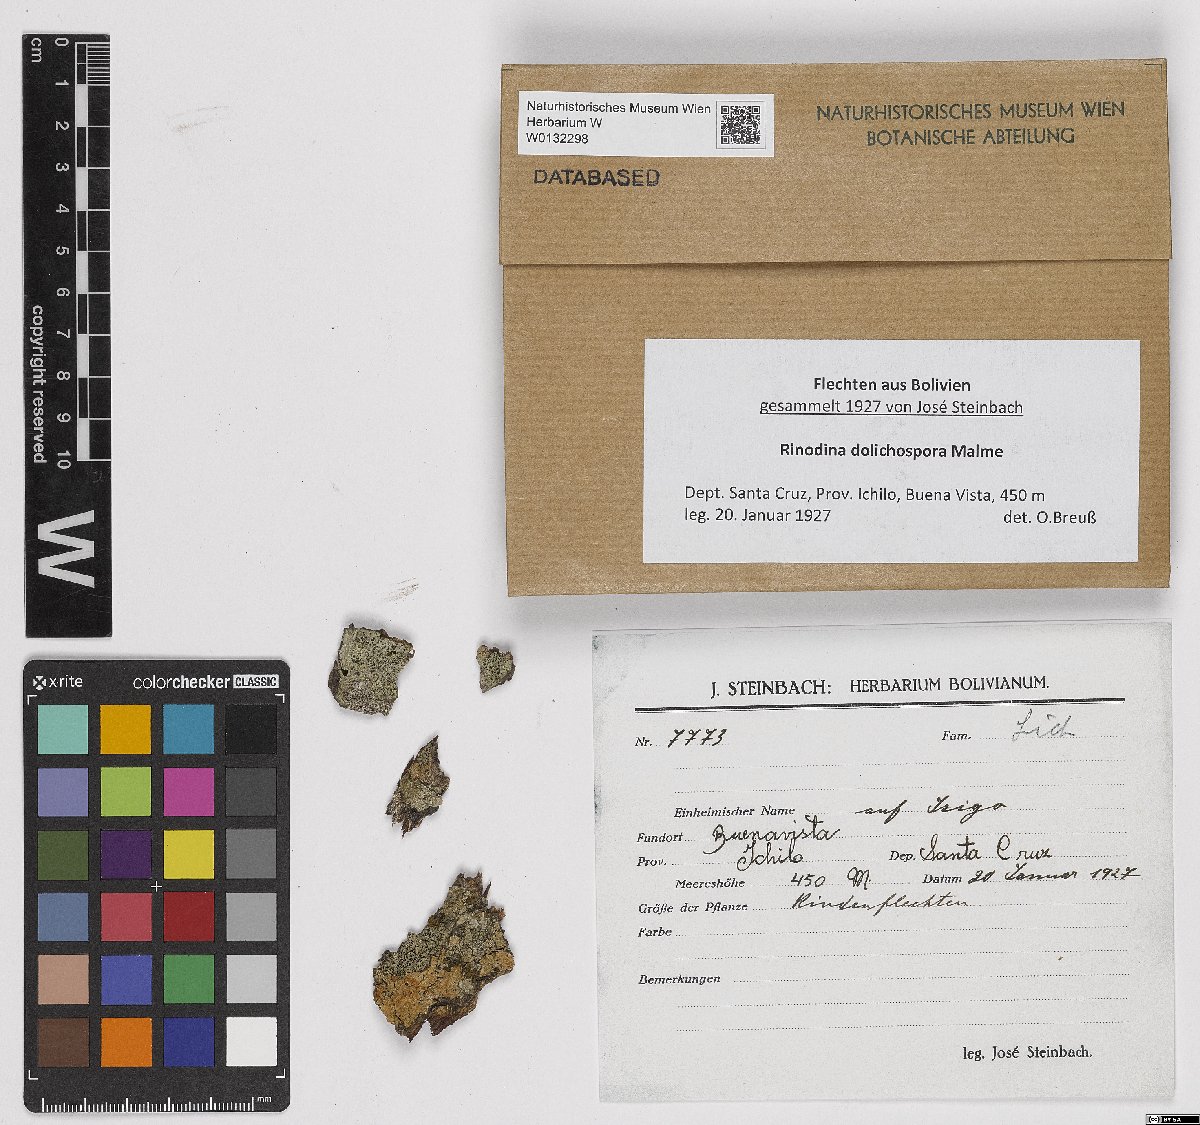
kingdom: Fungi
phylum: Ascomycota
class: Lecanoromycetes
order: Caliciales
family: Physciaceae
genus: Rinodina
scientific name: Rinodina dolichospora
